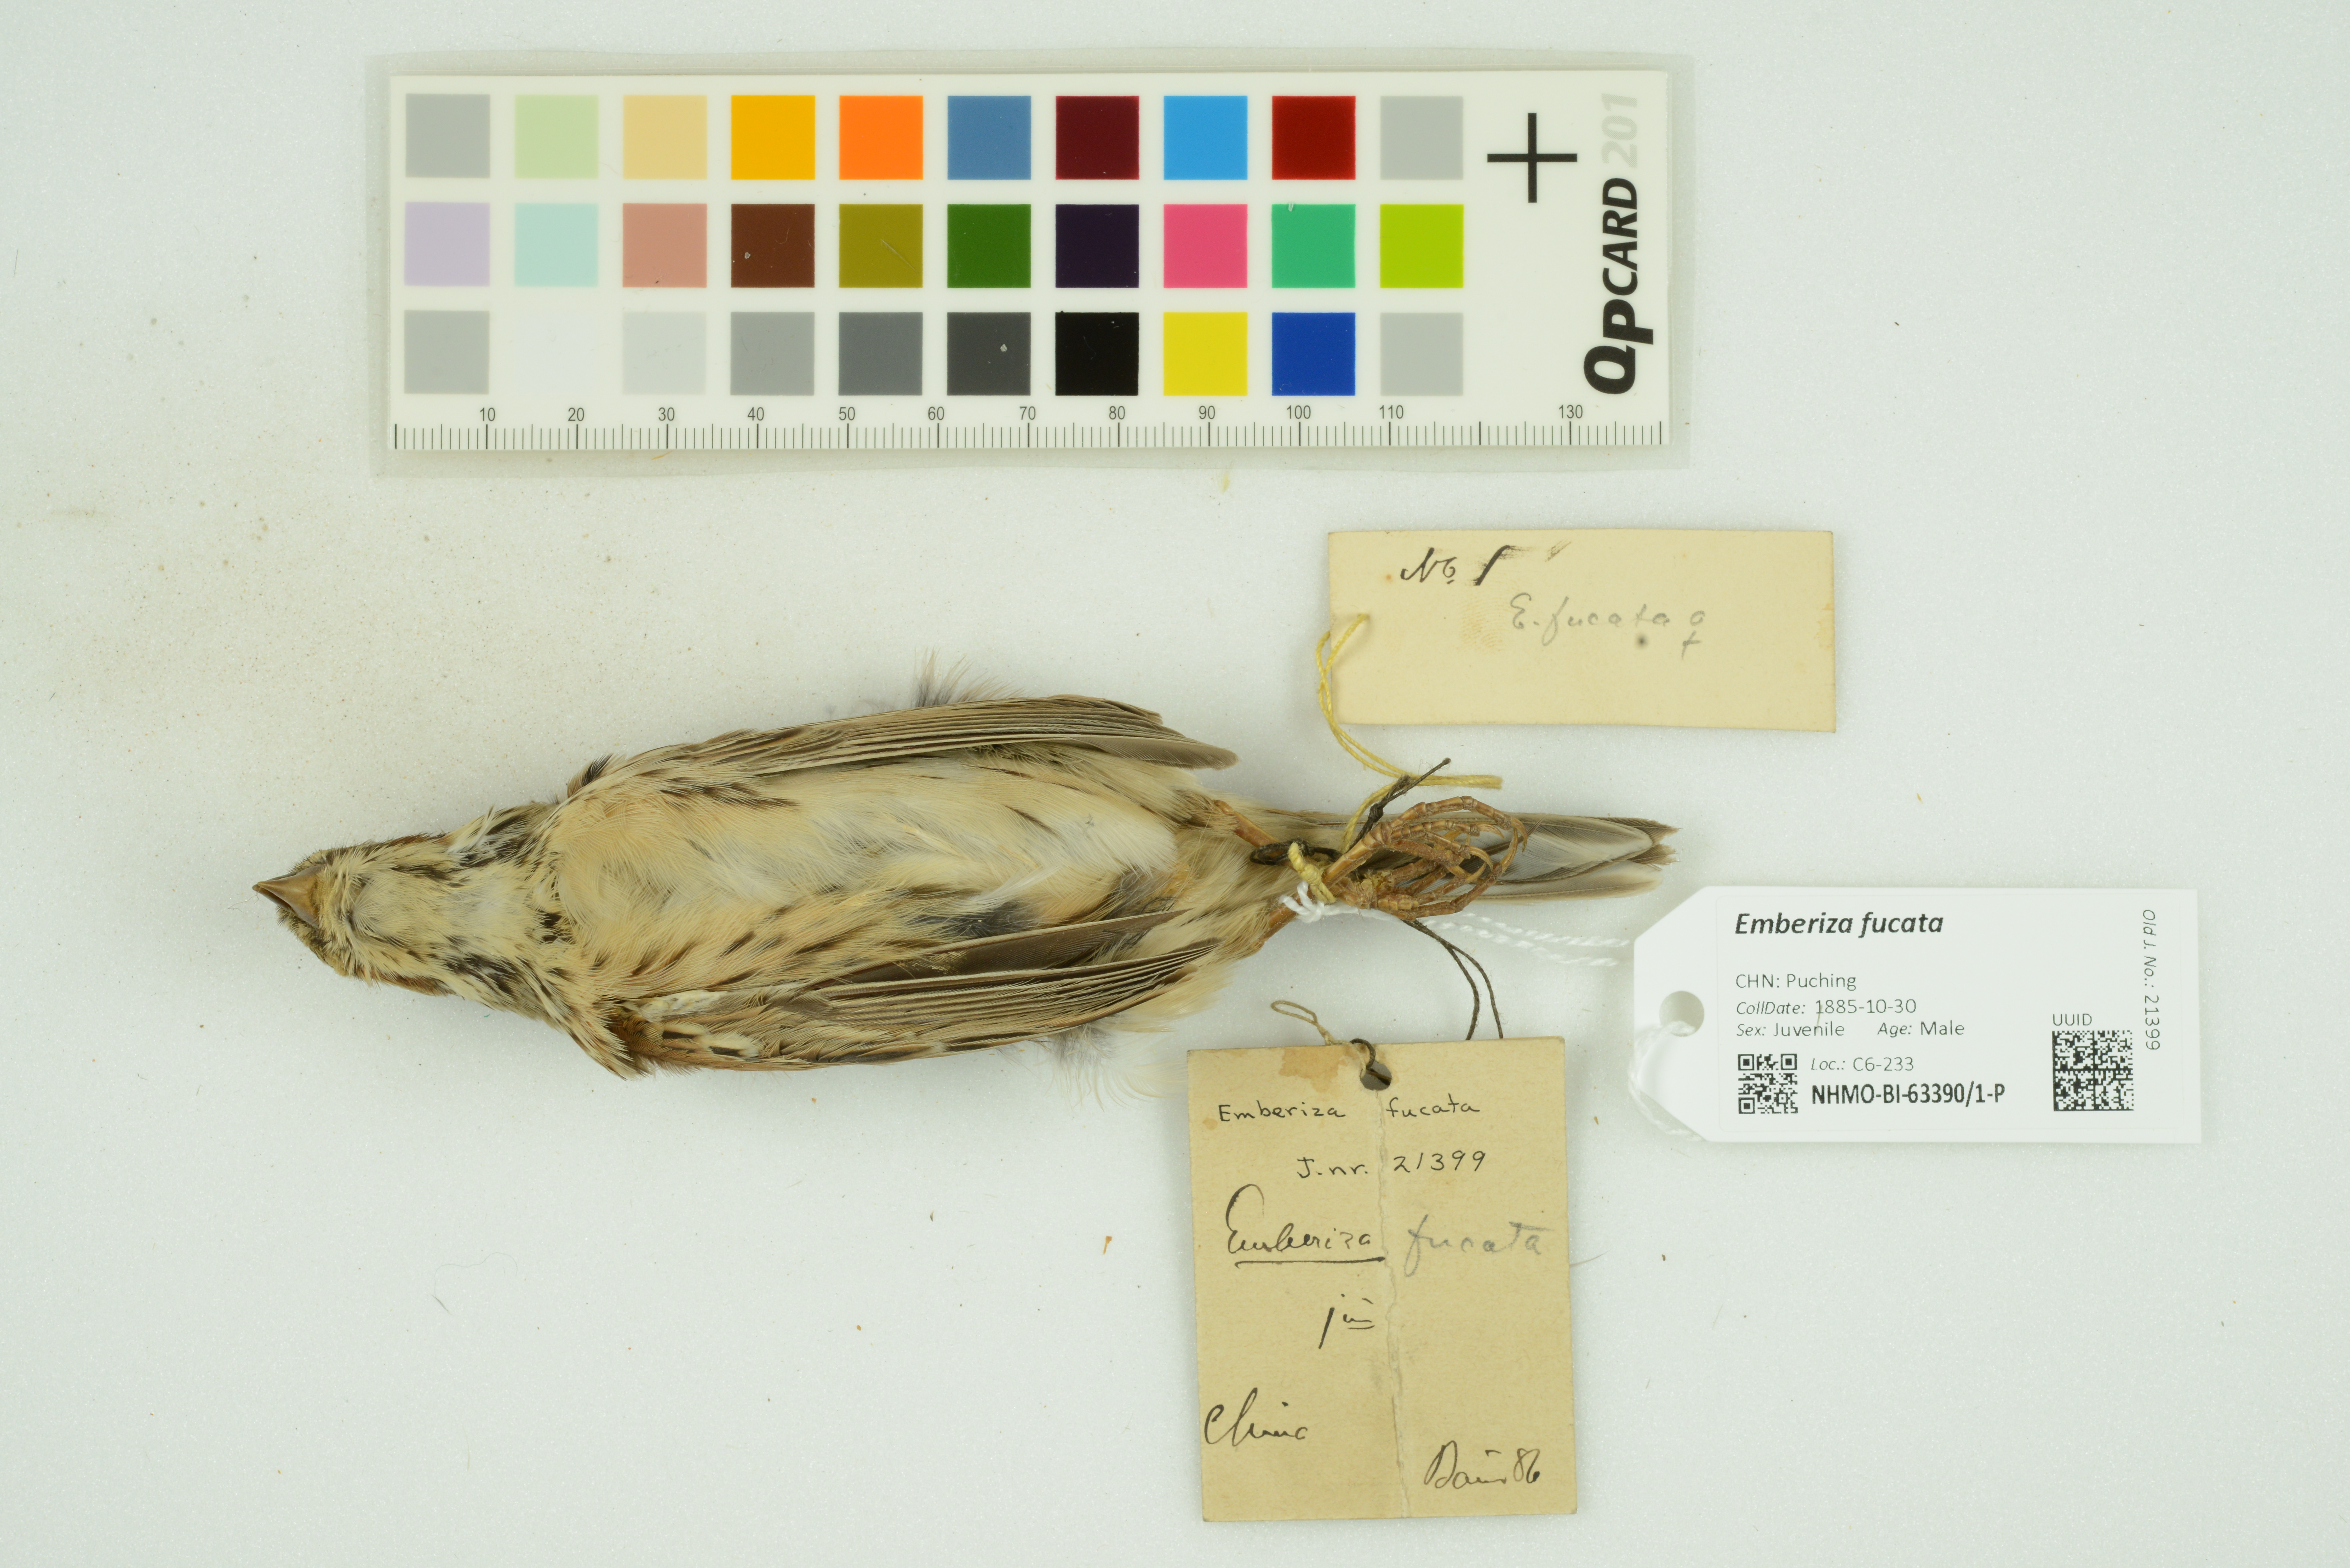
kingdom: Animalia
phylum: Chordata
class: Aves
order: Passeriformes
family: Emberizidae
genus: Emberiza
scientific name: Emberiza fucata
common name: Chestnut-eared bunting
